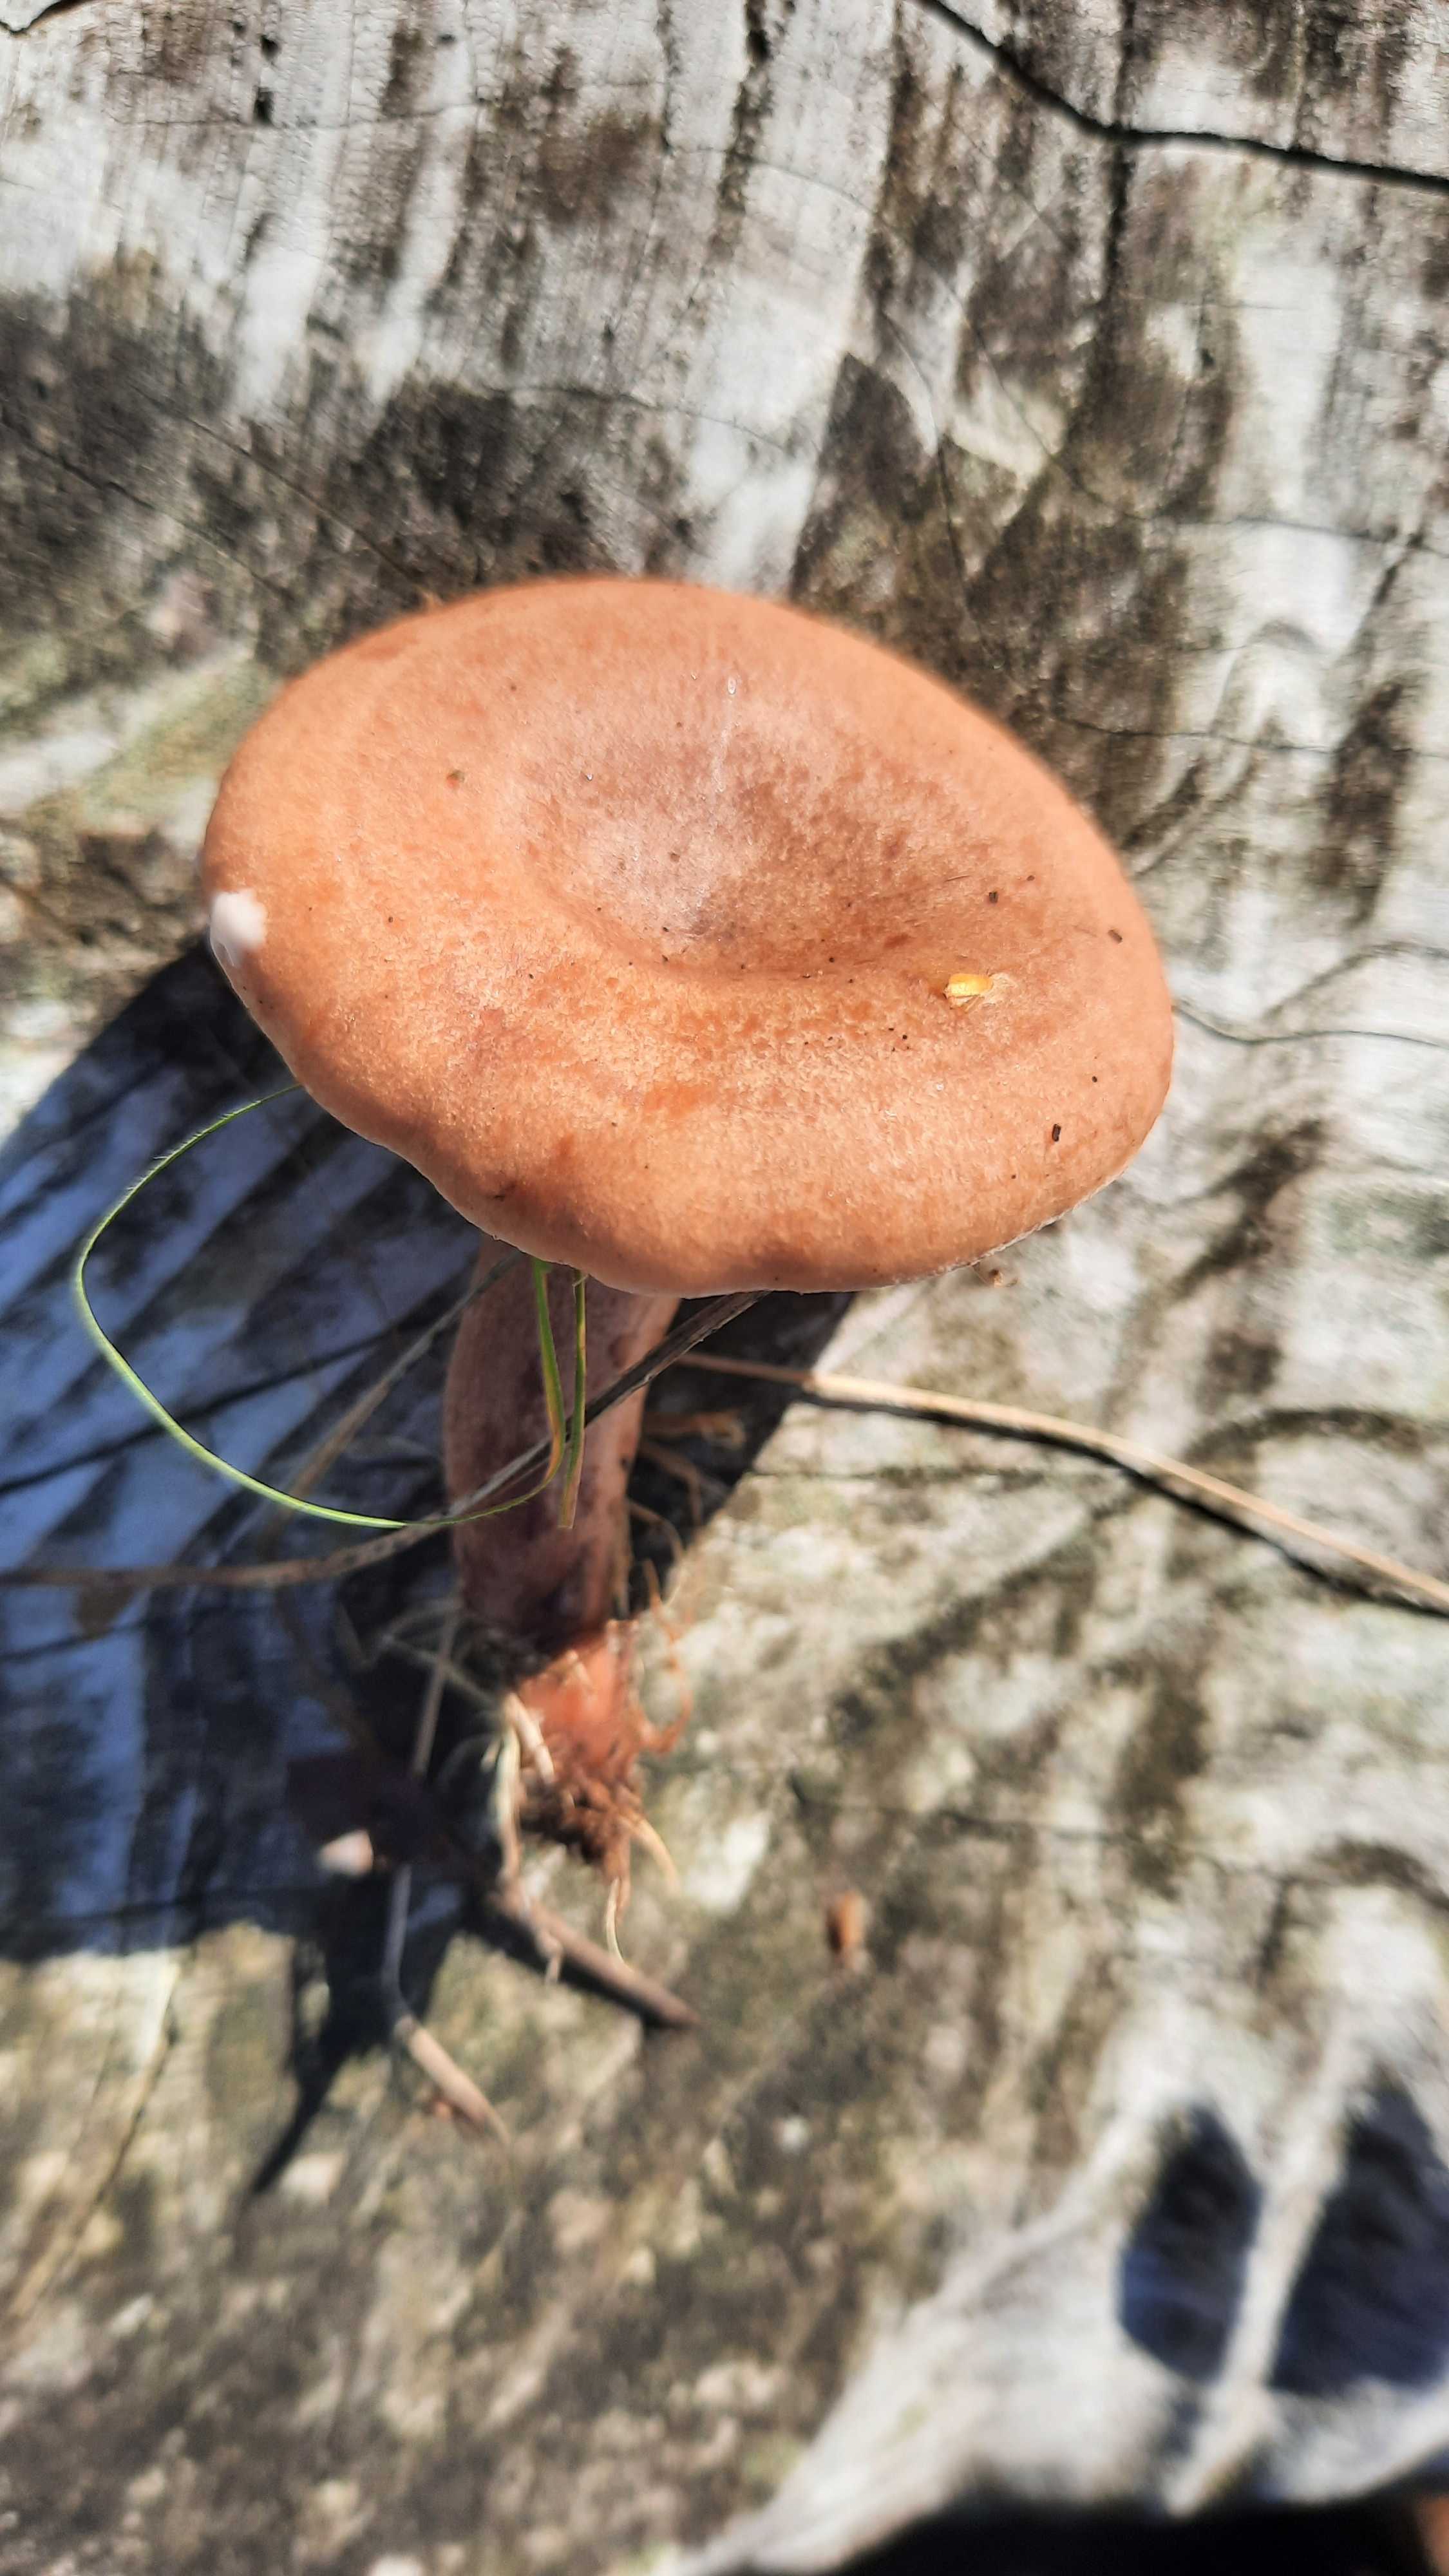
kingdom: Fungi
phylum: Basidiomycota
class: Agaricomycetes
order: Russulales
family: Russulaceae
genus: Lactarius
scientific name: Lactarius quietus
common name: ege-mælkehat
